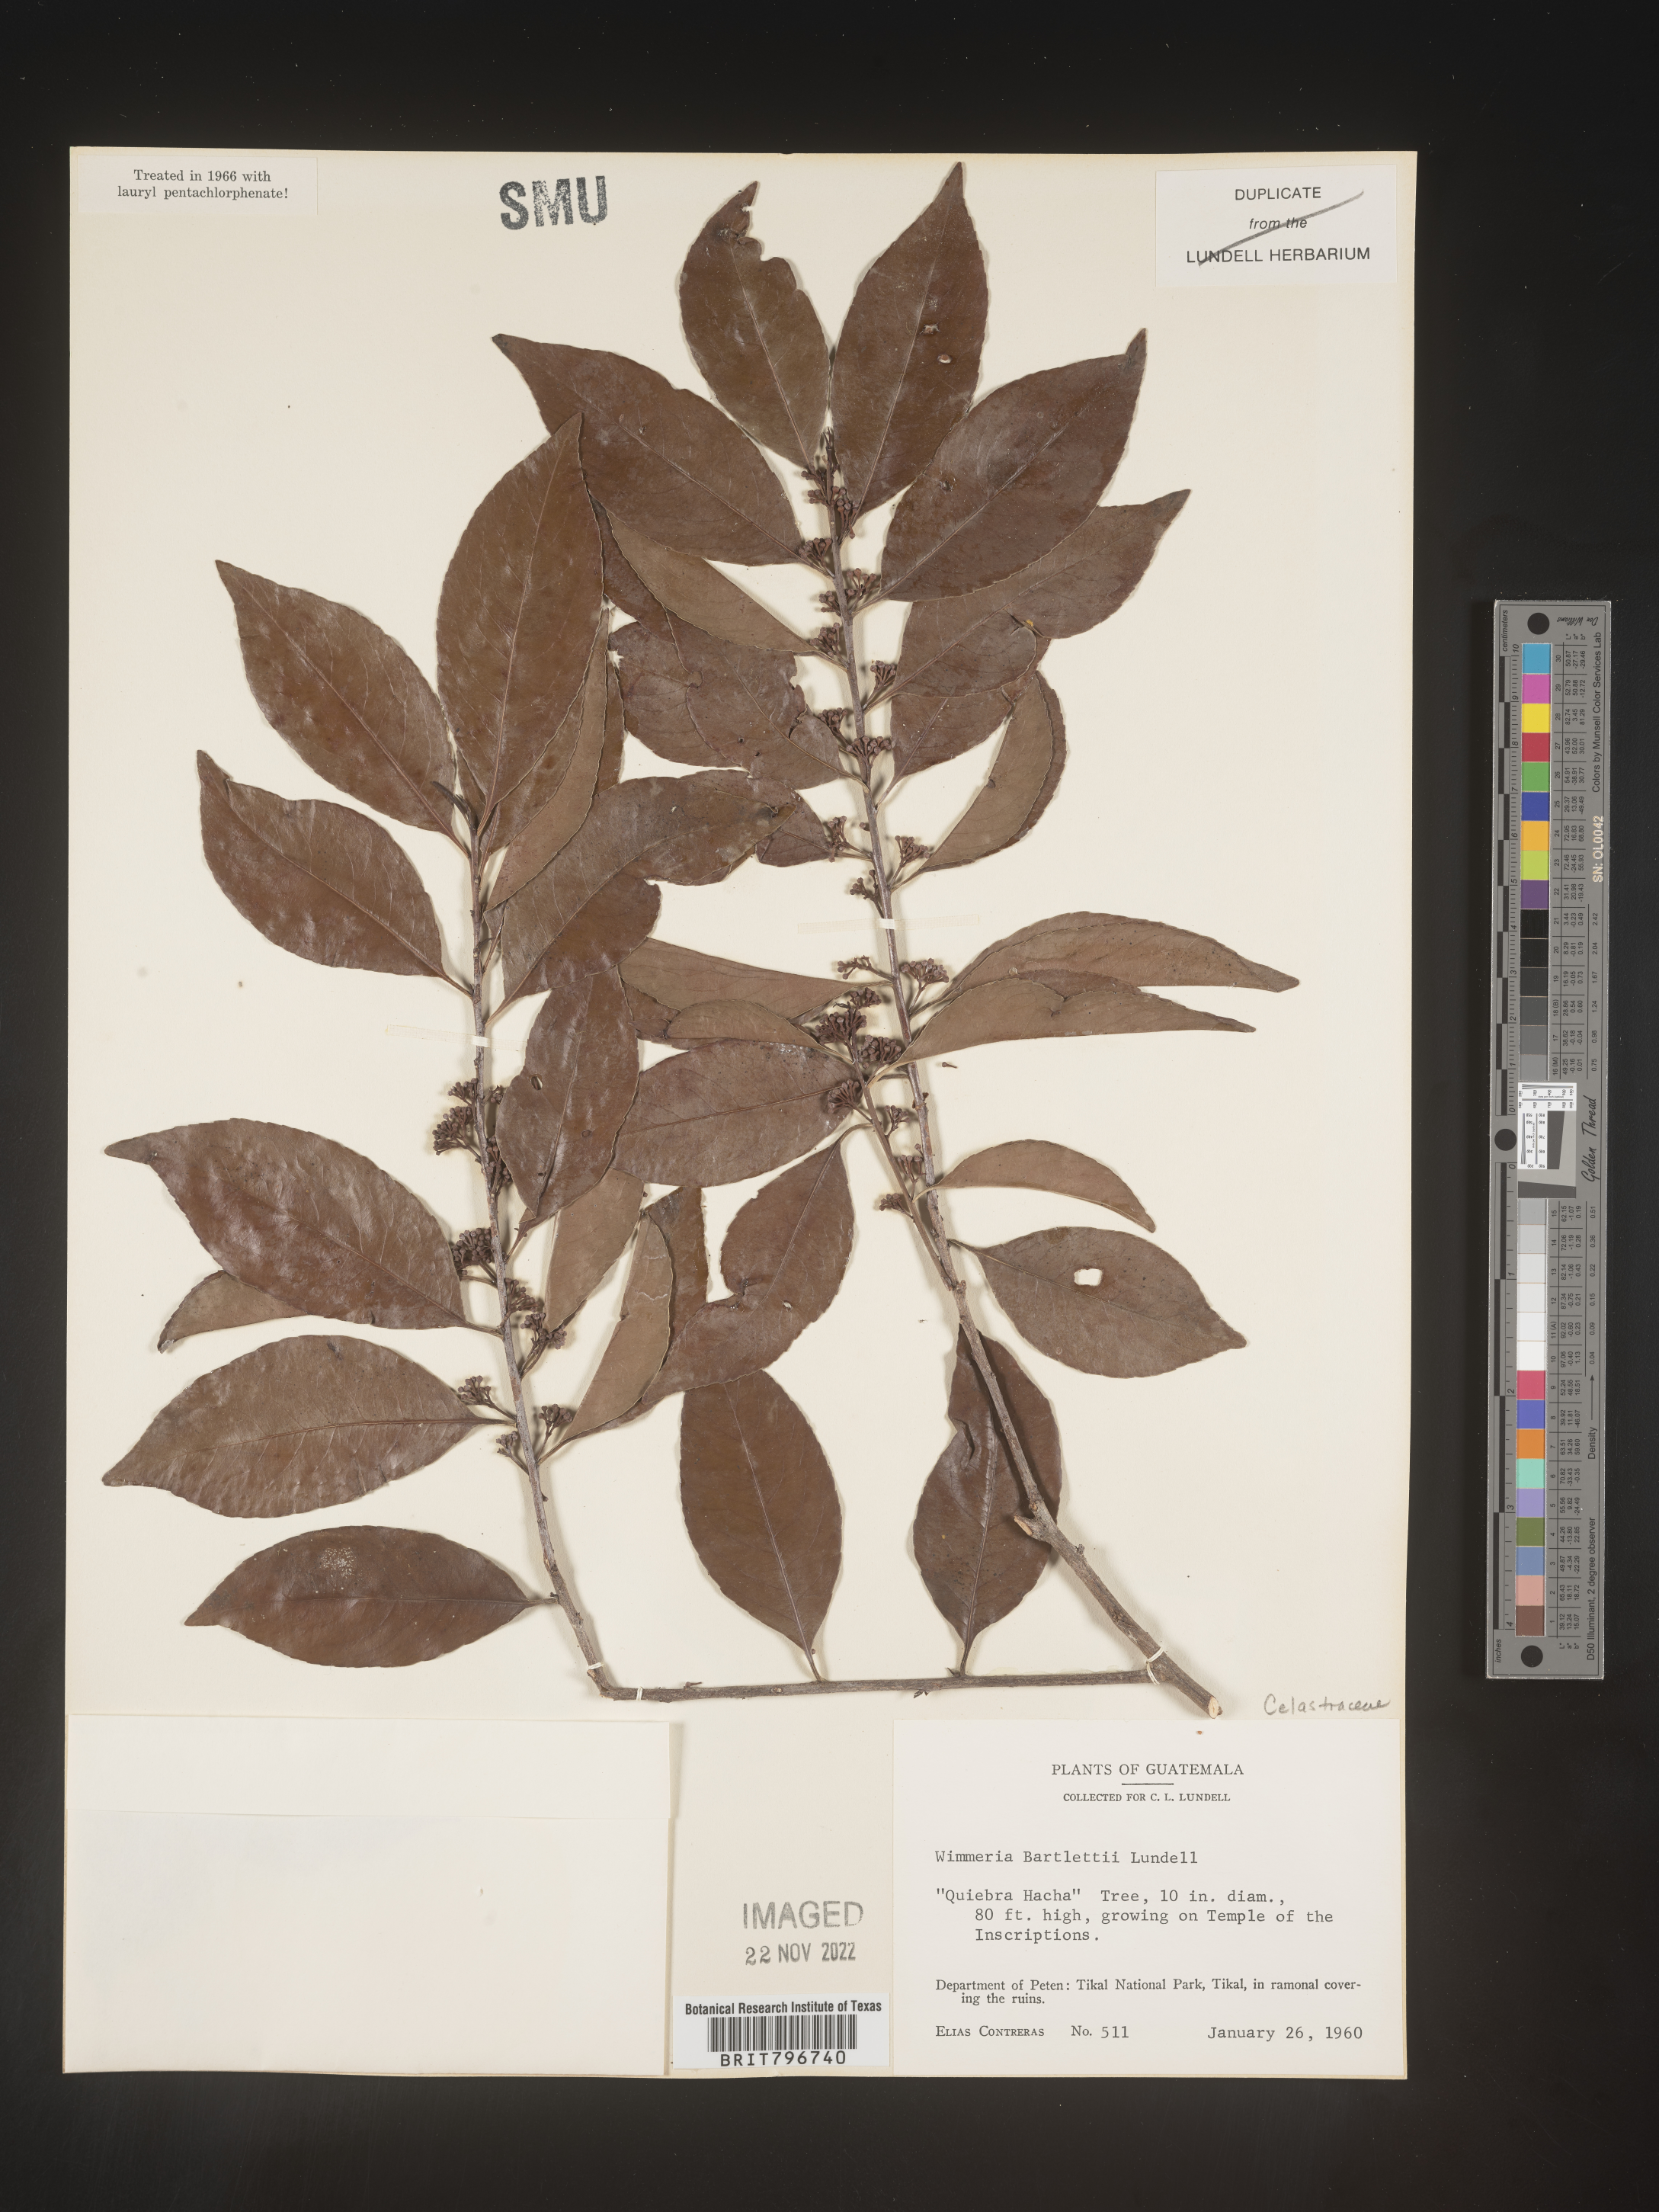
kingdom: Plantae
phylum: Tracheophyta
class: Magnoliopsida
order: Celastrales
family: Celastraceae
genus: Wimmeria
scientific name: Wimmeria
